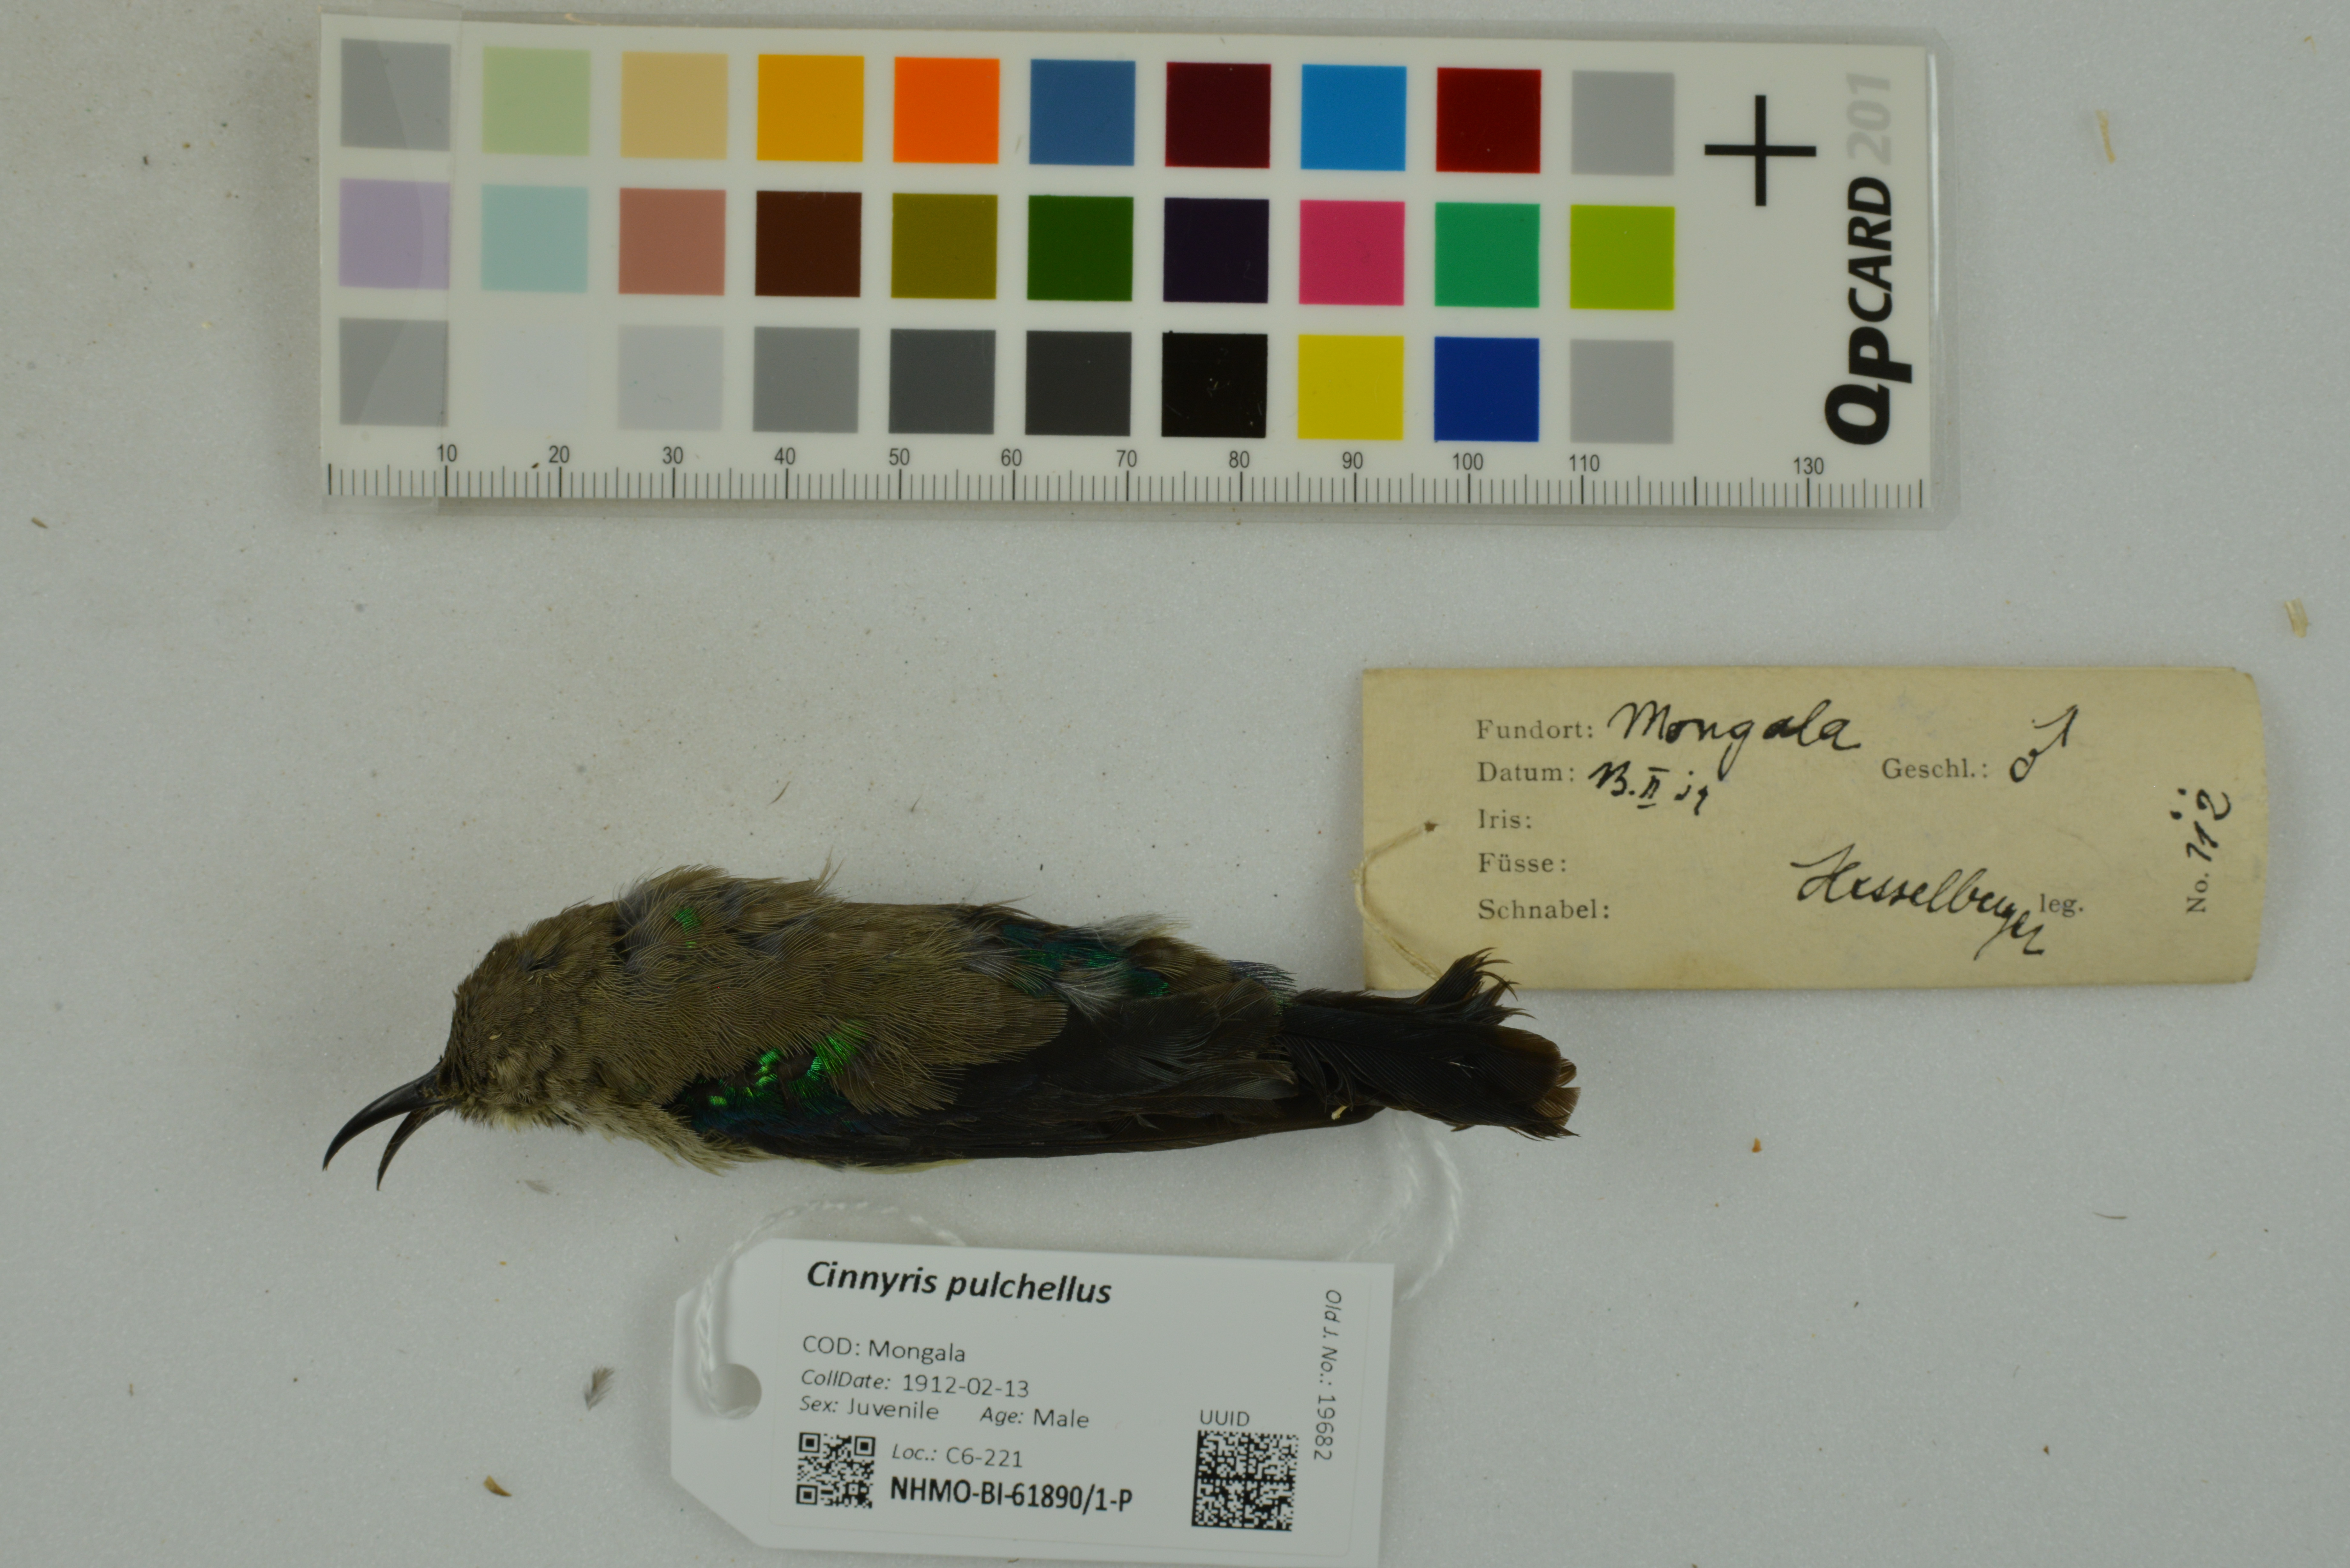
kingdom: Animalia
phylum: Chordata
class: Aves
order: Passeriformes
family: Nectariniidae
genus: Cinnyris
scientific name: Cinnyris pulchellus
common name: Beautiful sunbird
